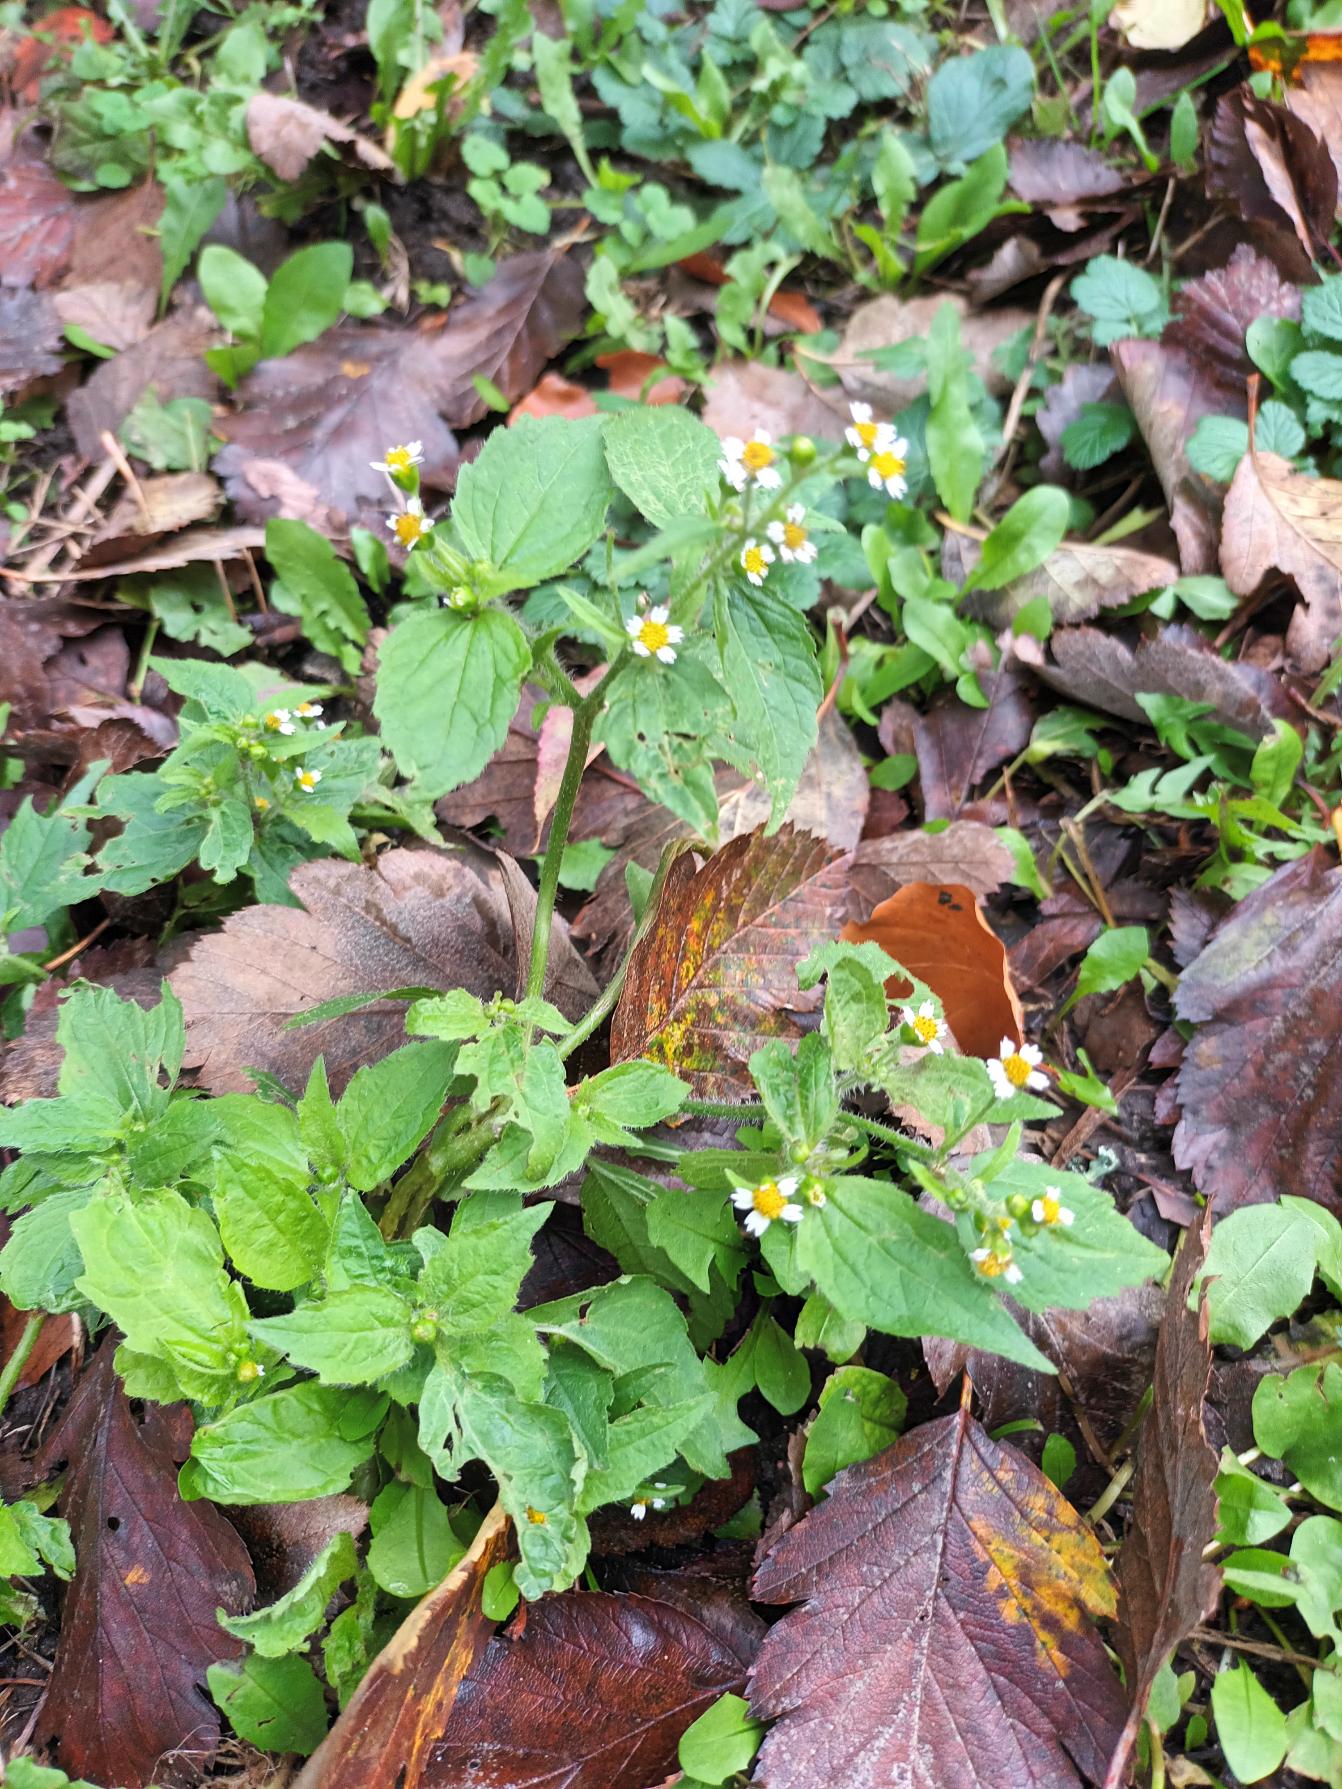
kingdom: Plantae
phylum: Tracheophyta
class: Magnoliopsida
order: Asterales
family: Asteraceae
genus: Galinsoga
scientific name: Galinsoga quadriradiata
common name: Kirtel-kortstråle
